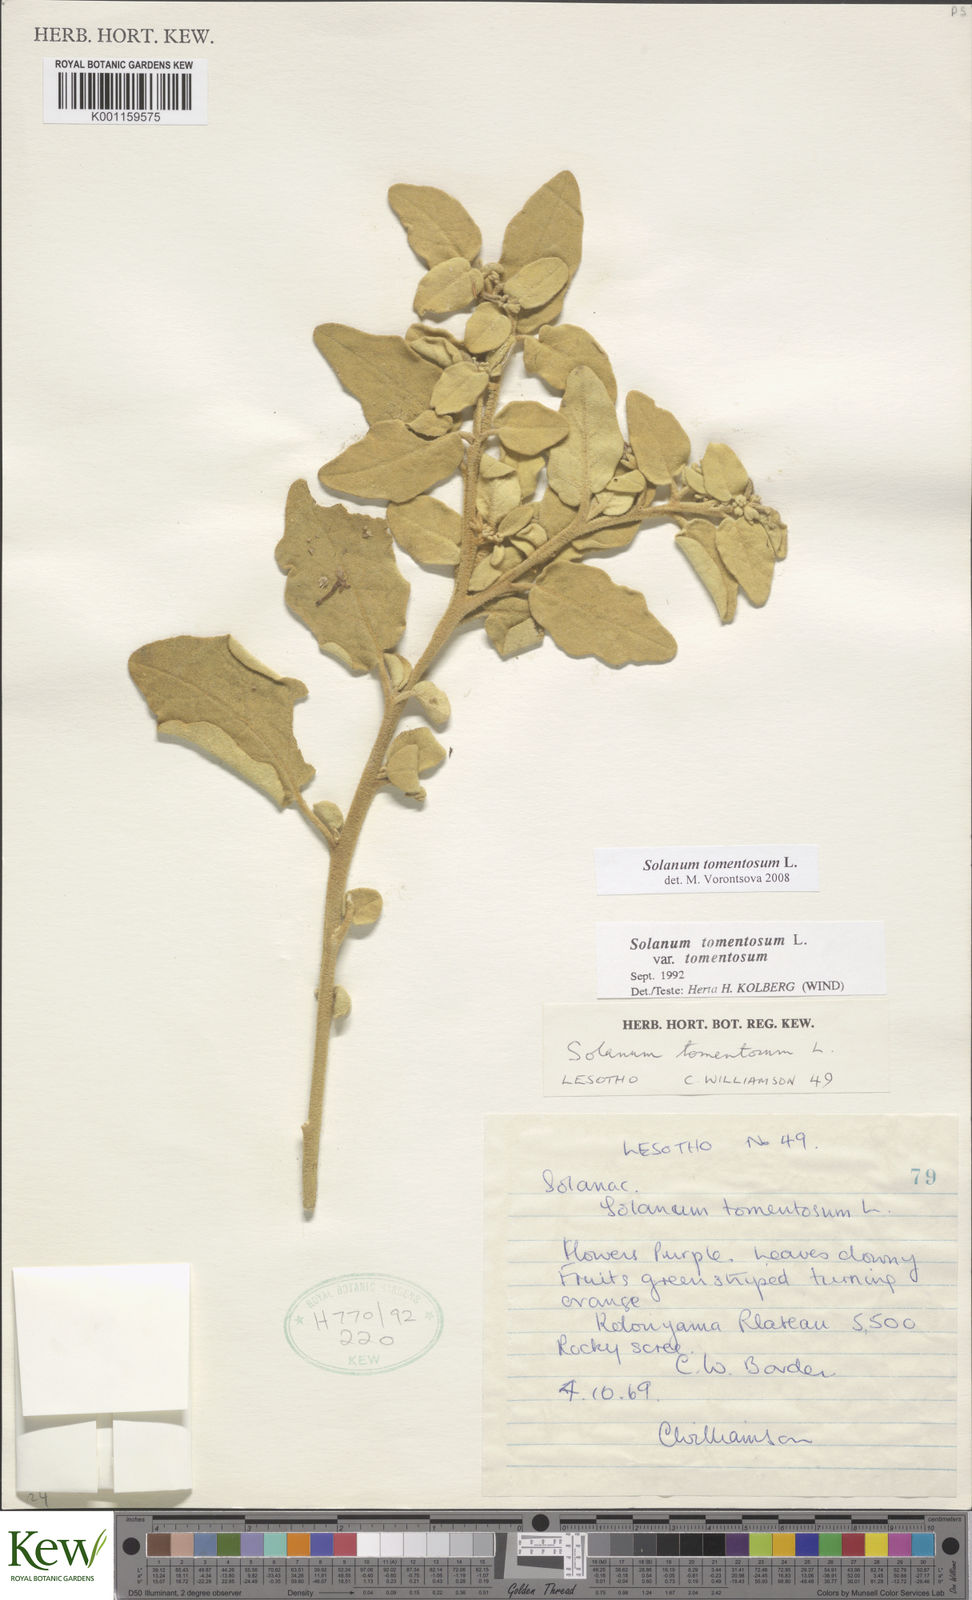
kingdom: Plantae
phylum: Tracheophyta
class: Magnoliopsida
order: Solanales
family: Solanaceae
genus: Solanum
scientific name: Solanum tomentosum
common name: Wild aubergine
